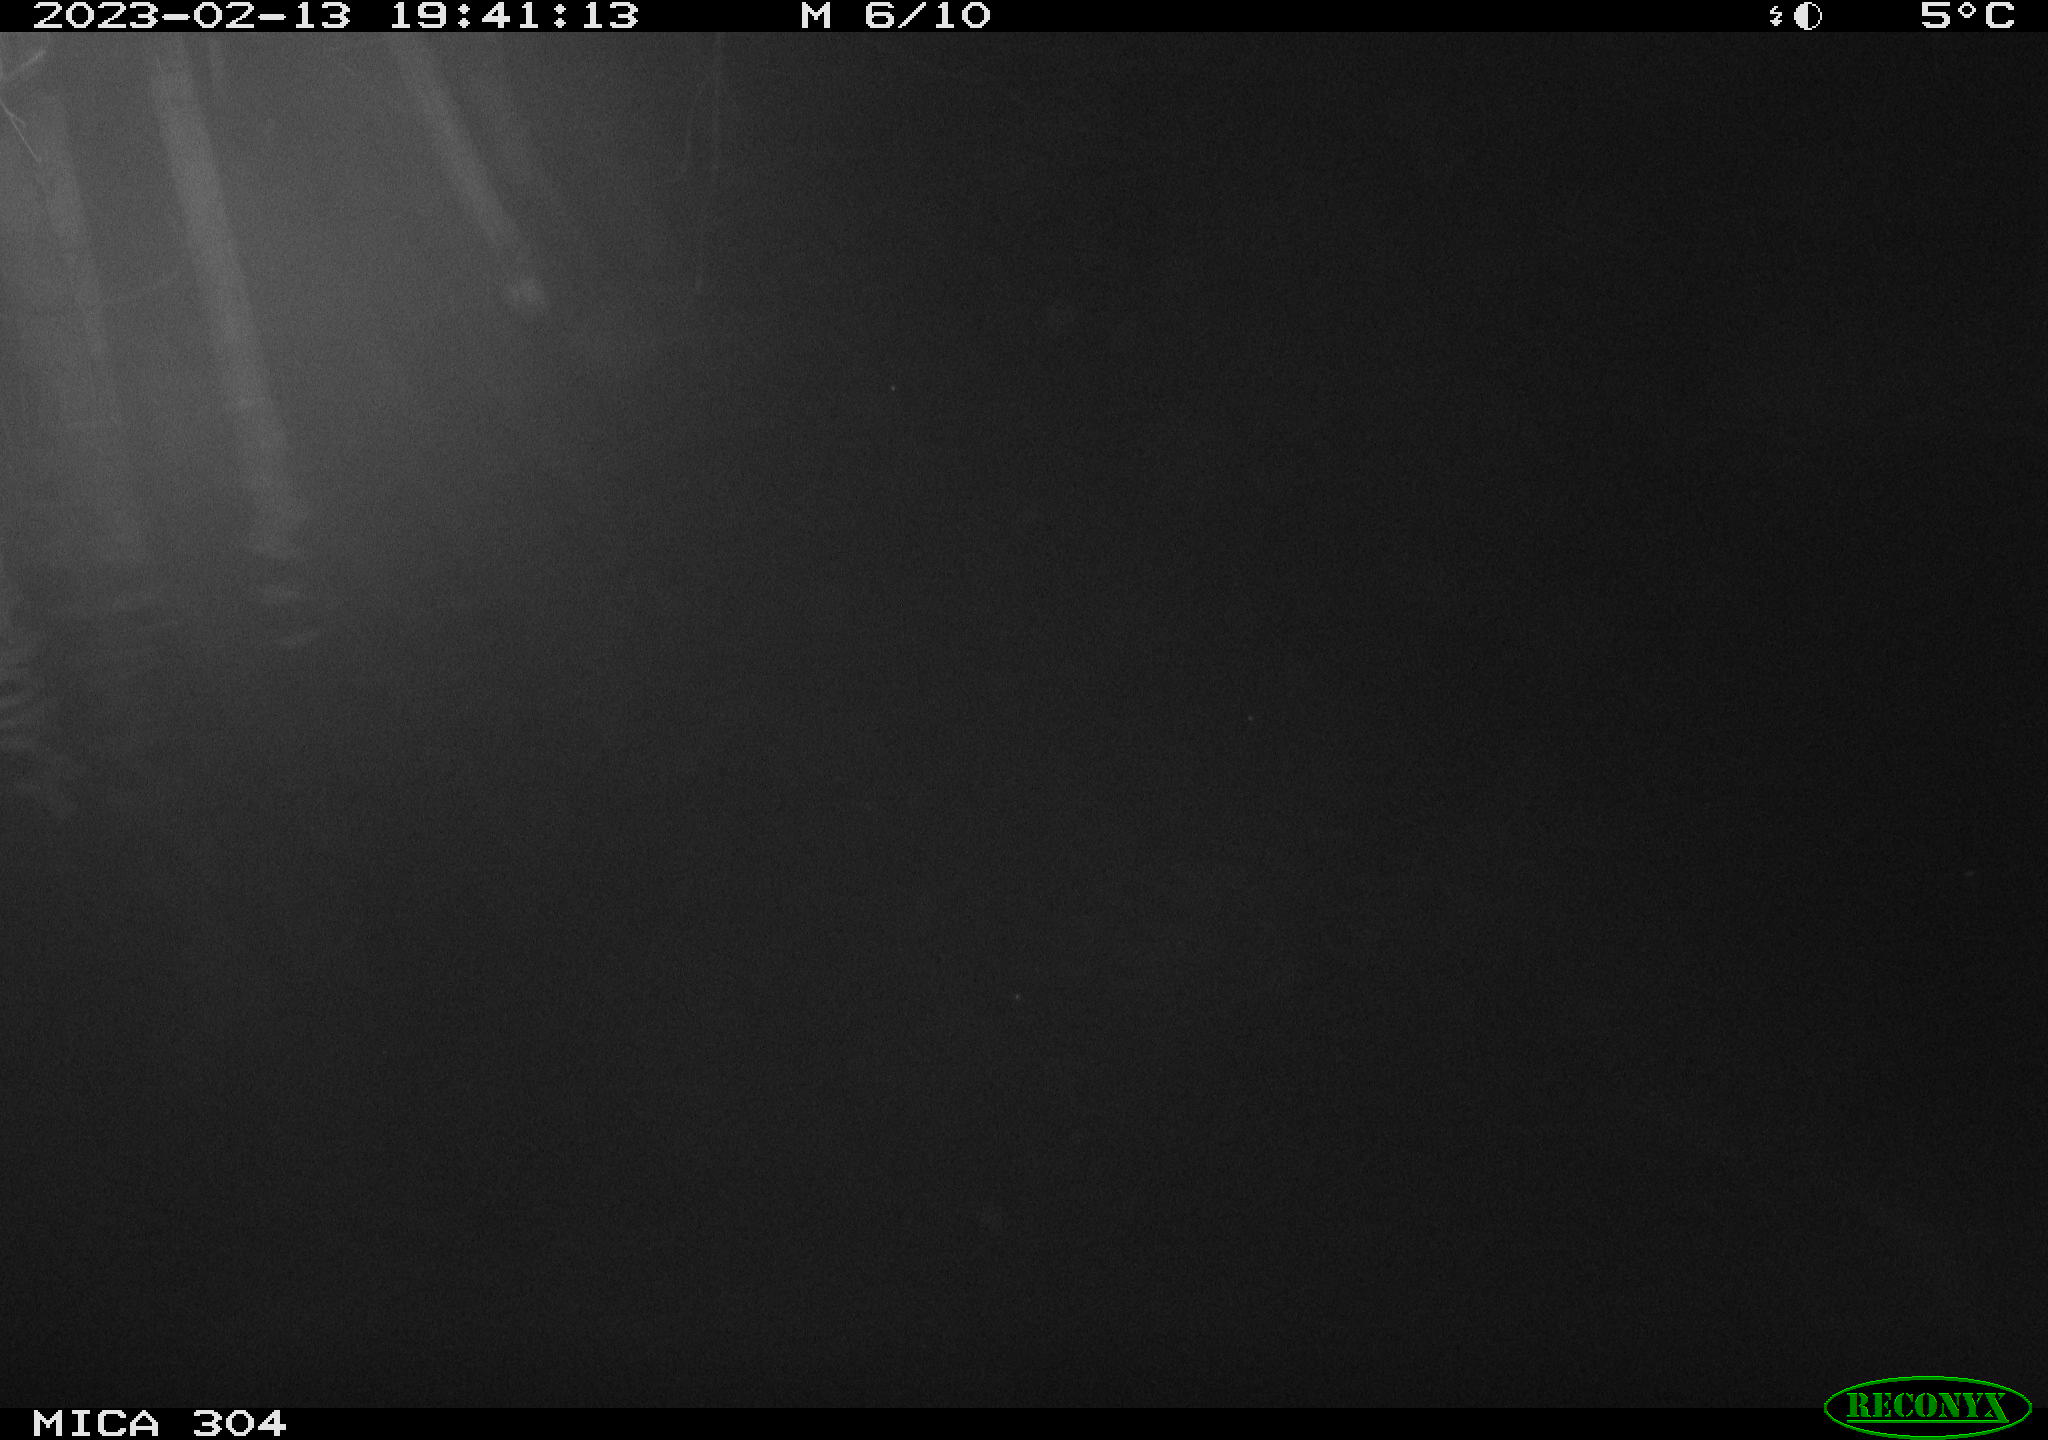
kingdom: Animalia
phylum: Chordata
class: Mammalia
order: Rodentia
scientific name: Rodentia
